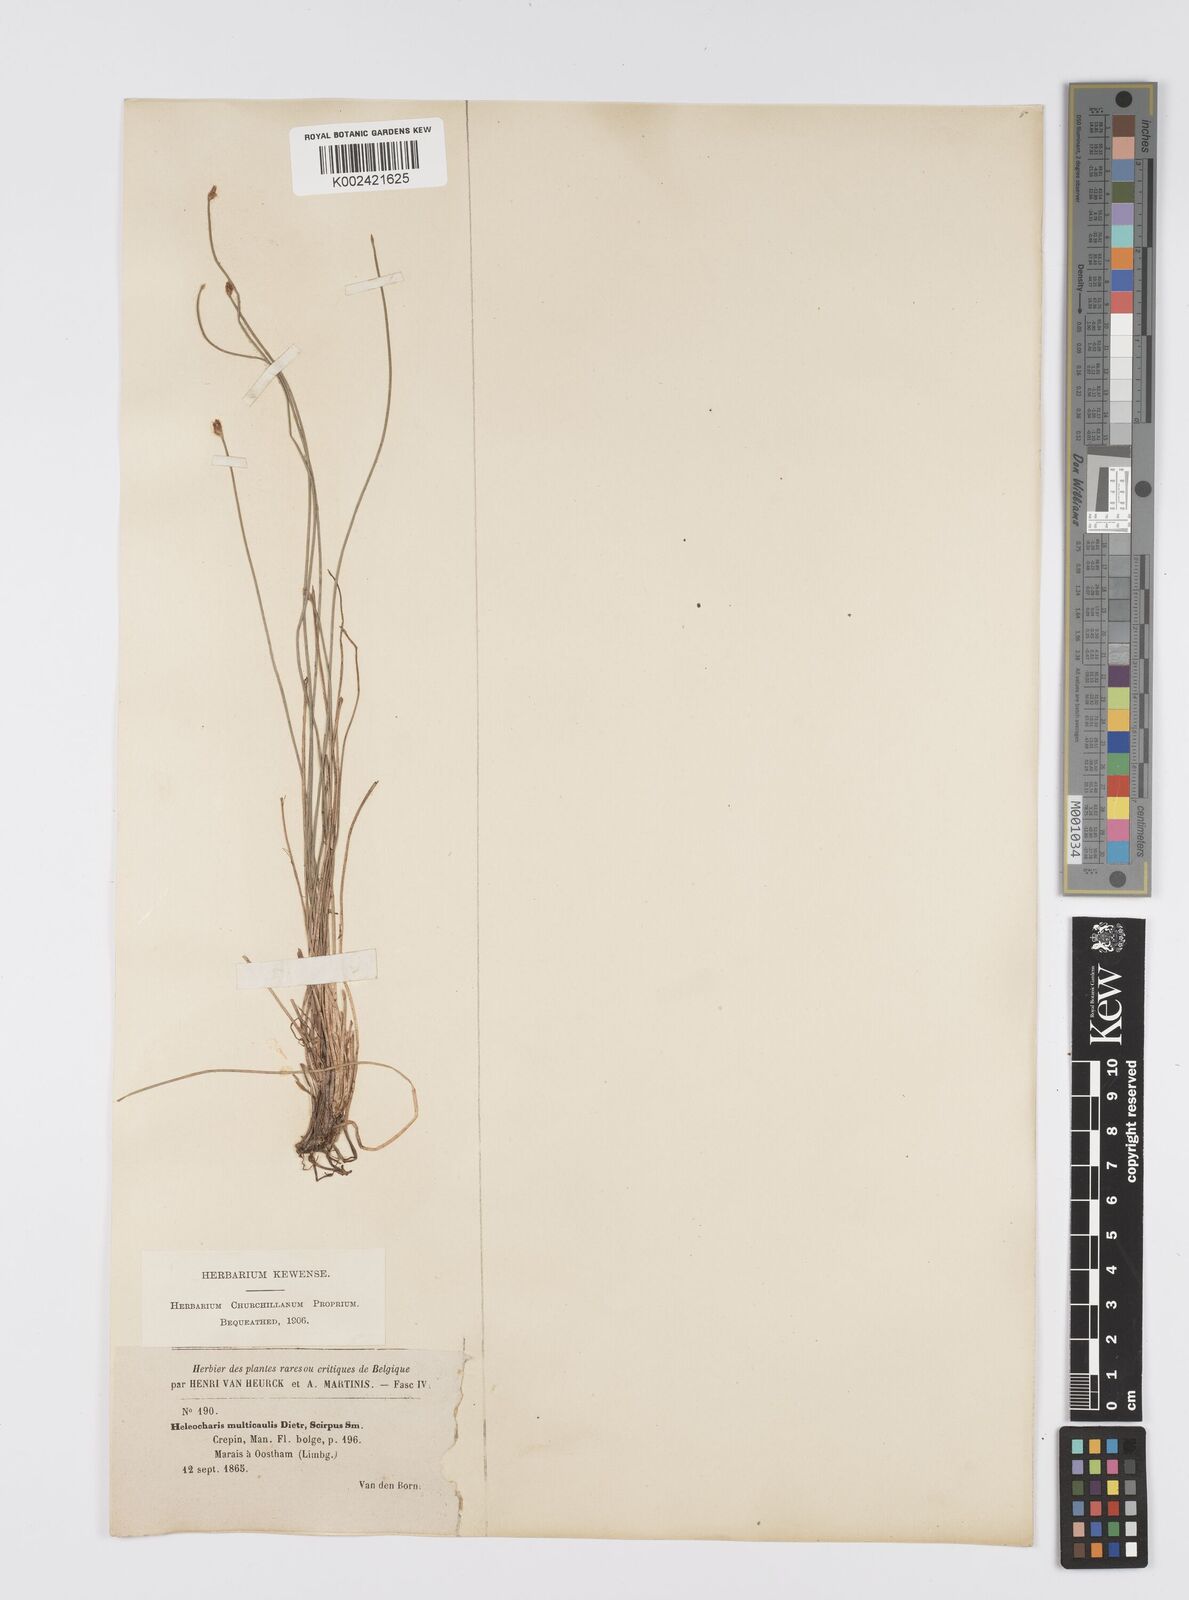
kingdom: Plantae
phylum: Tracheophyta
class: Liliopsida
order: Poales
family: Cyperaceae
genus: Eleocharis
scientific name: Eleocharis multicaulis
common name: Many-stalked spike-rush
